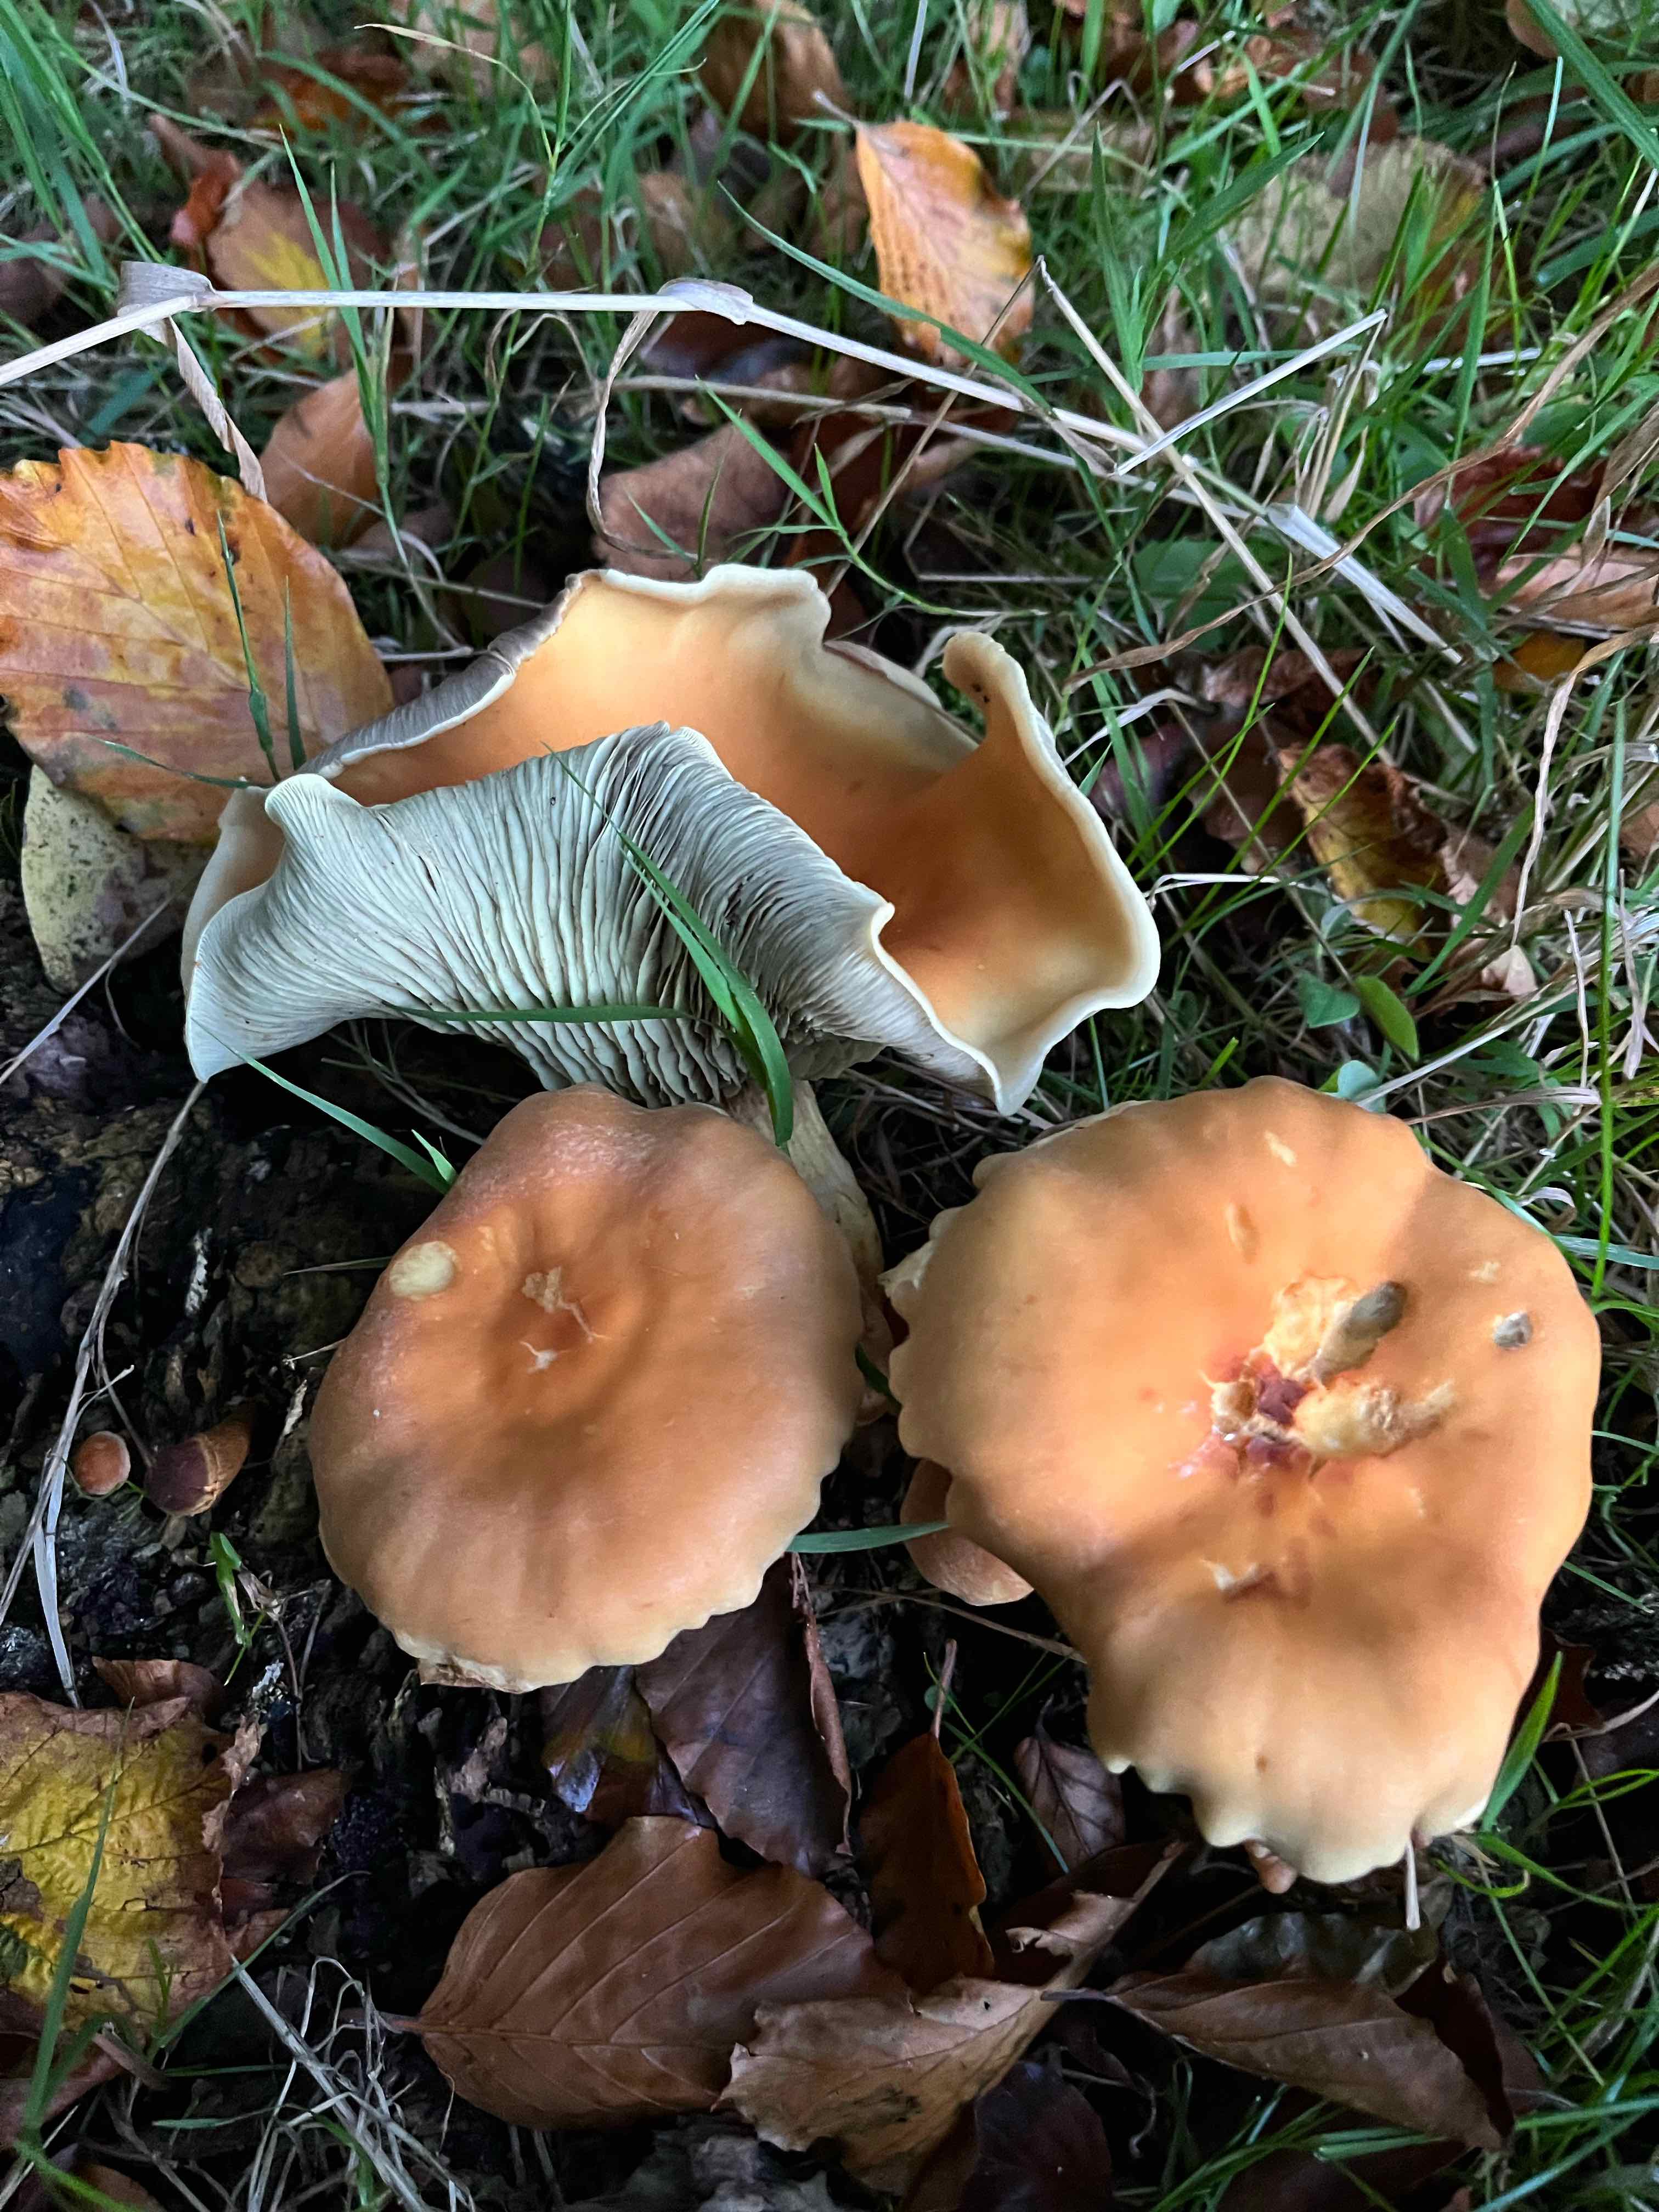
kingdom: Fungi
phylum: Basidiomycota
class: Agaricomycetes
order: Agaricales
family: Strophariaceae
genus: Hypholoma
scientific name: Hypholoma lateritium
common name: teglrød svovlhat
